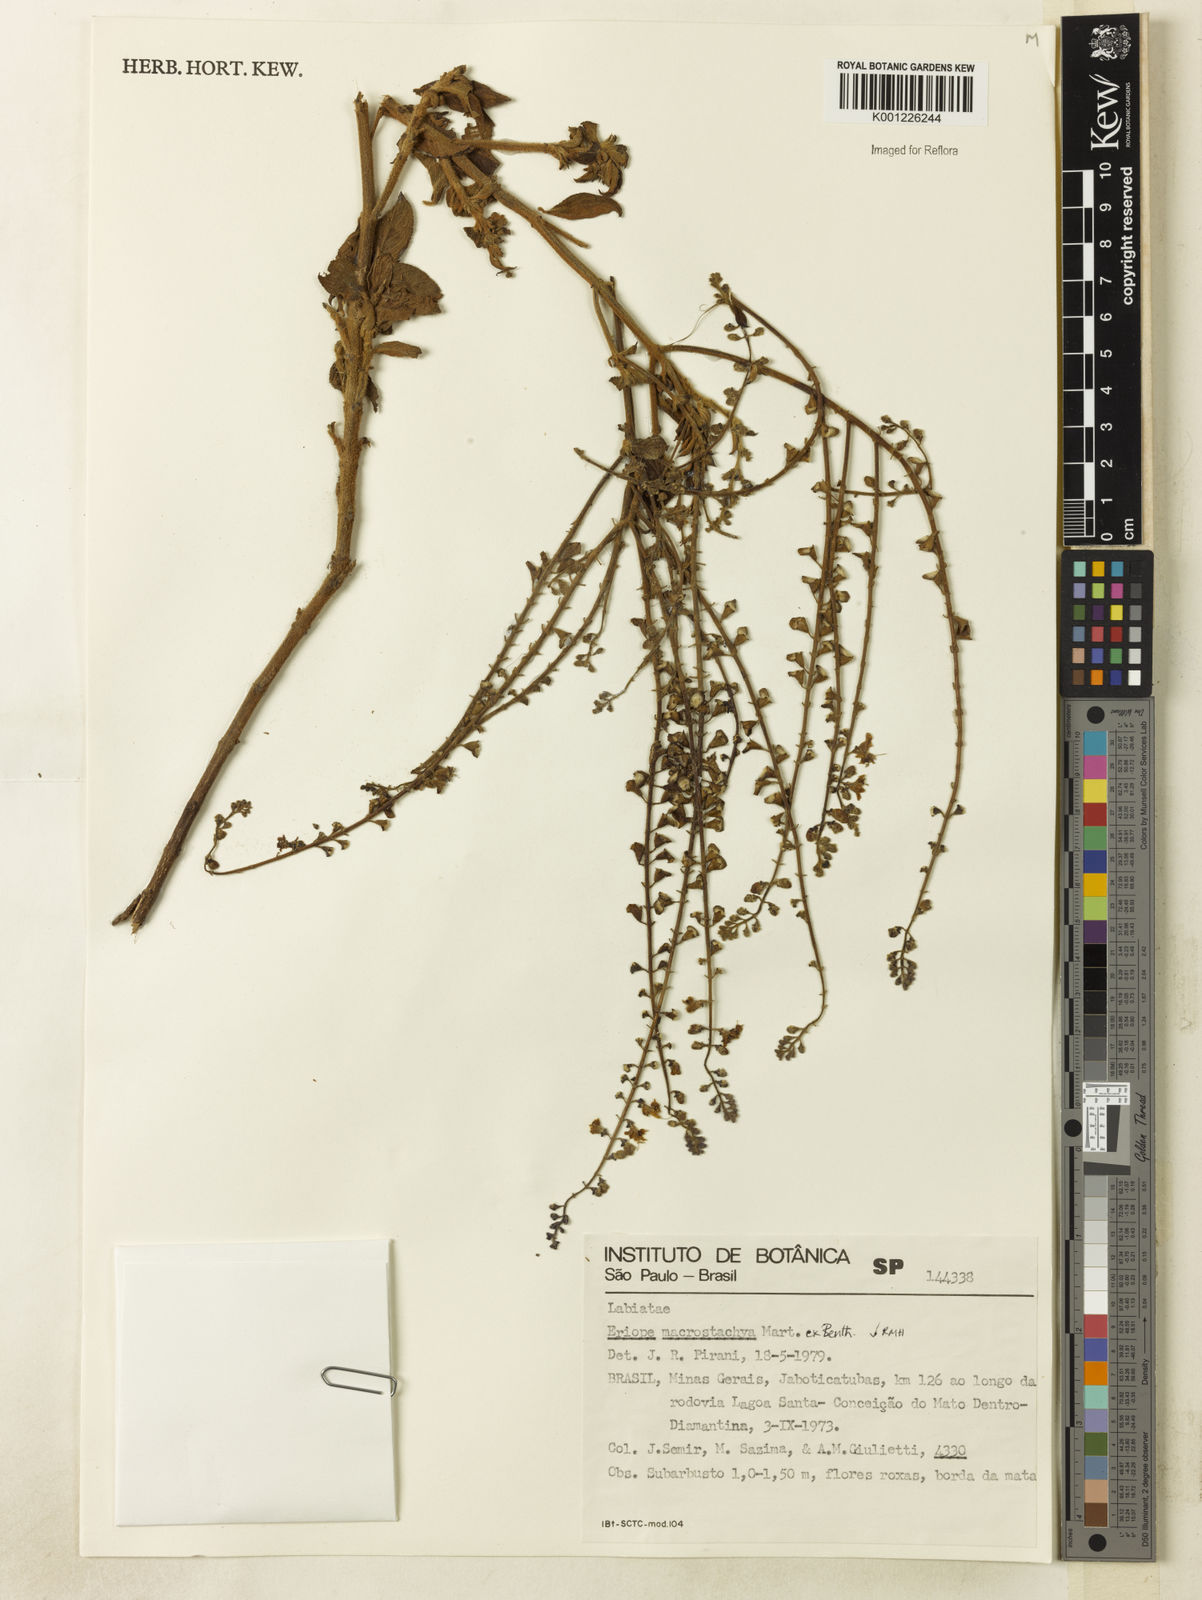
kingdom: Plantae
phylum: Tracheophyta
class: Magnoliopsida
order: Lamiales
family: Lamiaceae
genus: Eriope
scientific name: Eriope macrostachya
